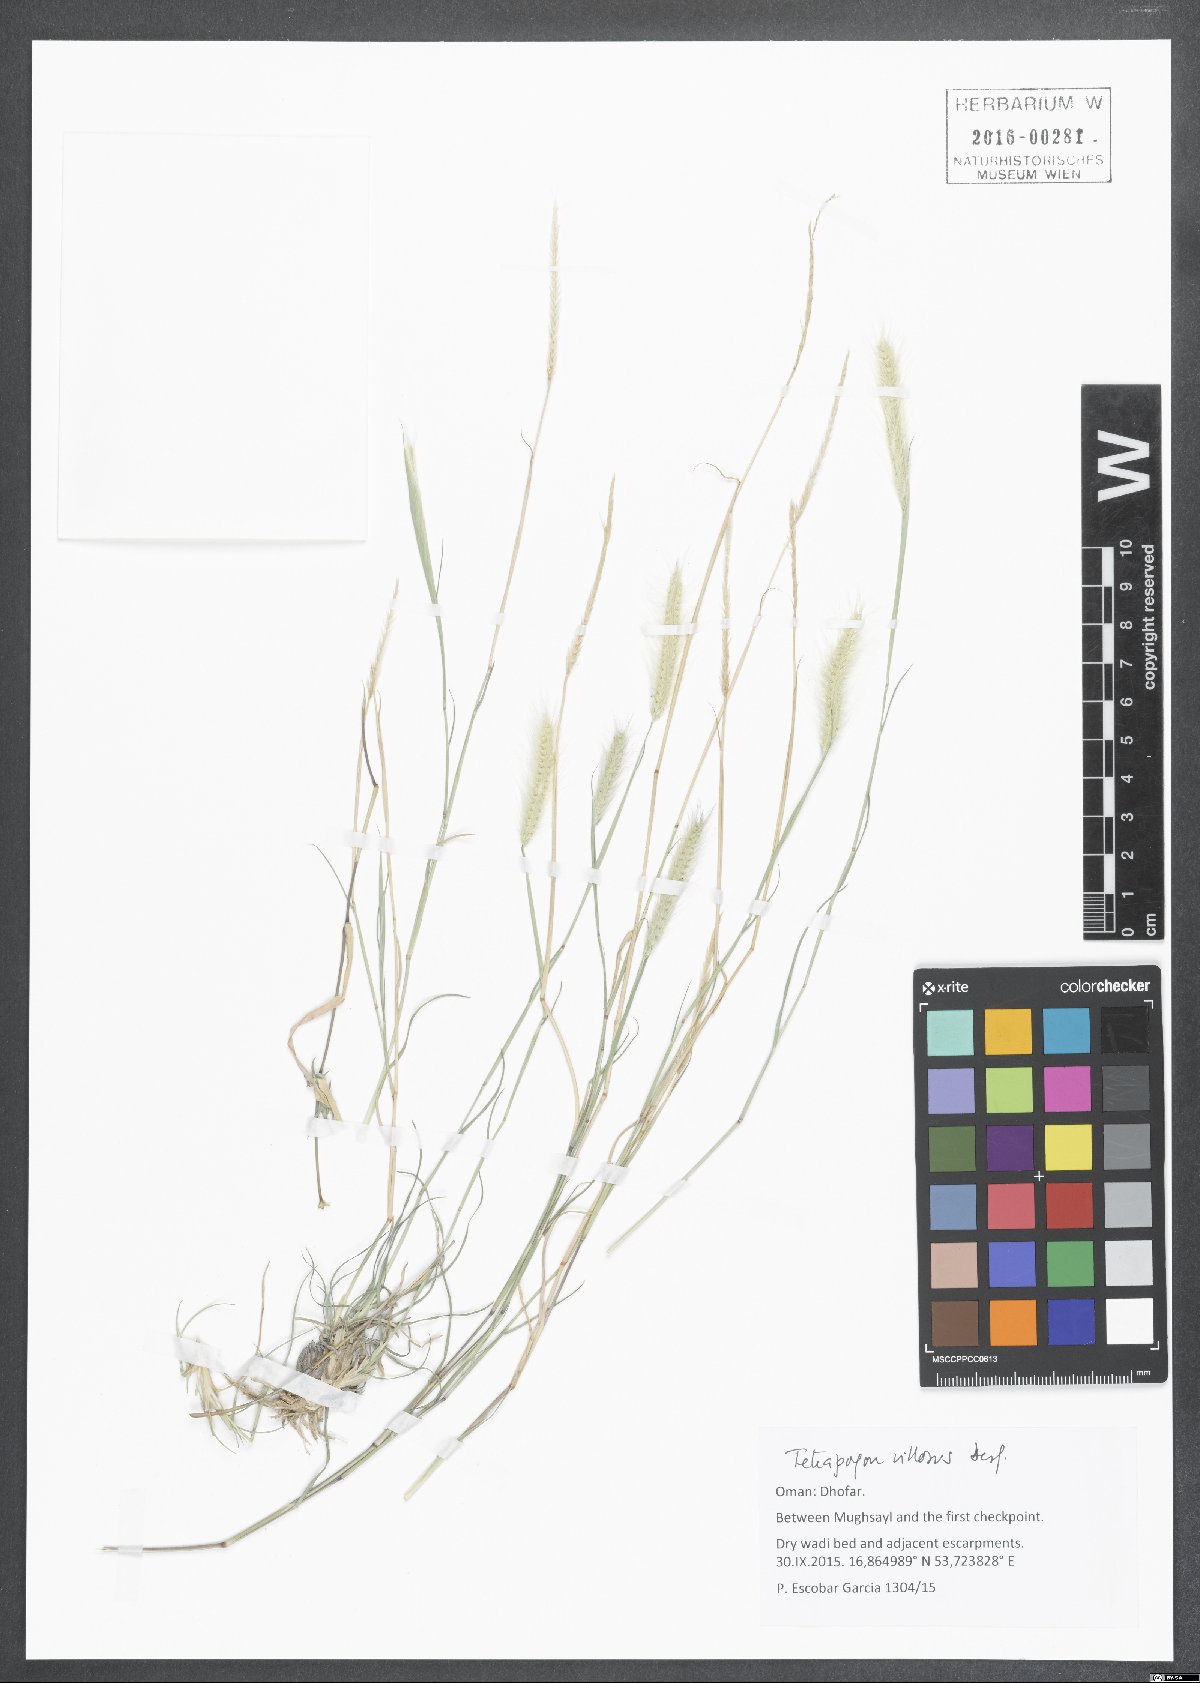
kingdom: Plantae
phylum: Tracheophyta
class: Liliopsida
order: Poales
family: Poaceae
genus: Tetrapogon
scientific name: Tetrapogon villosus
